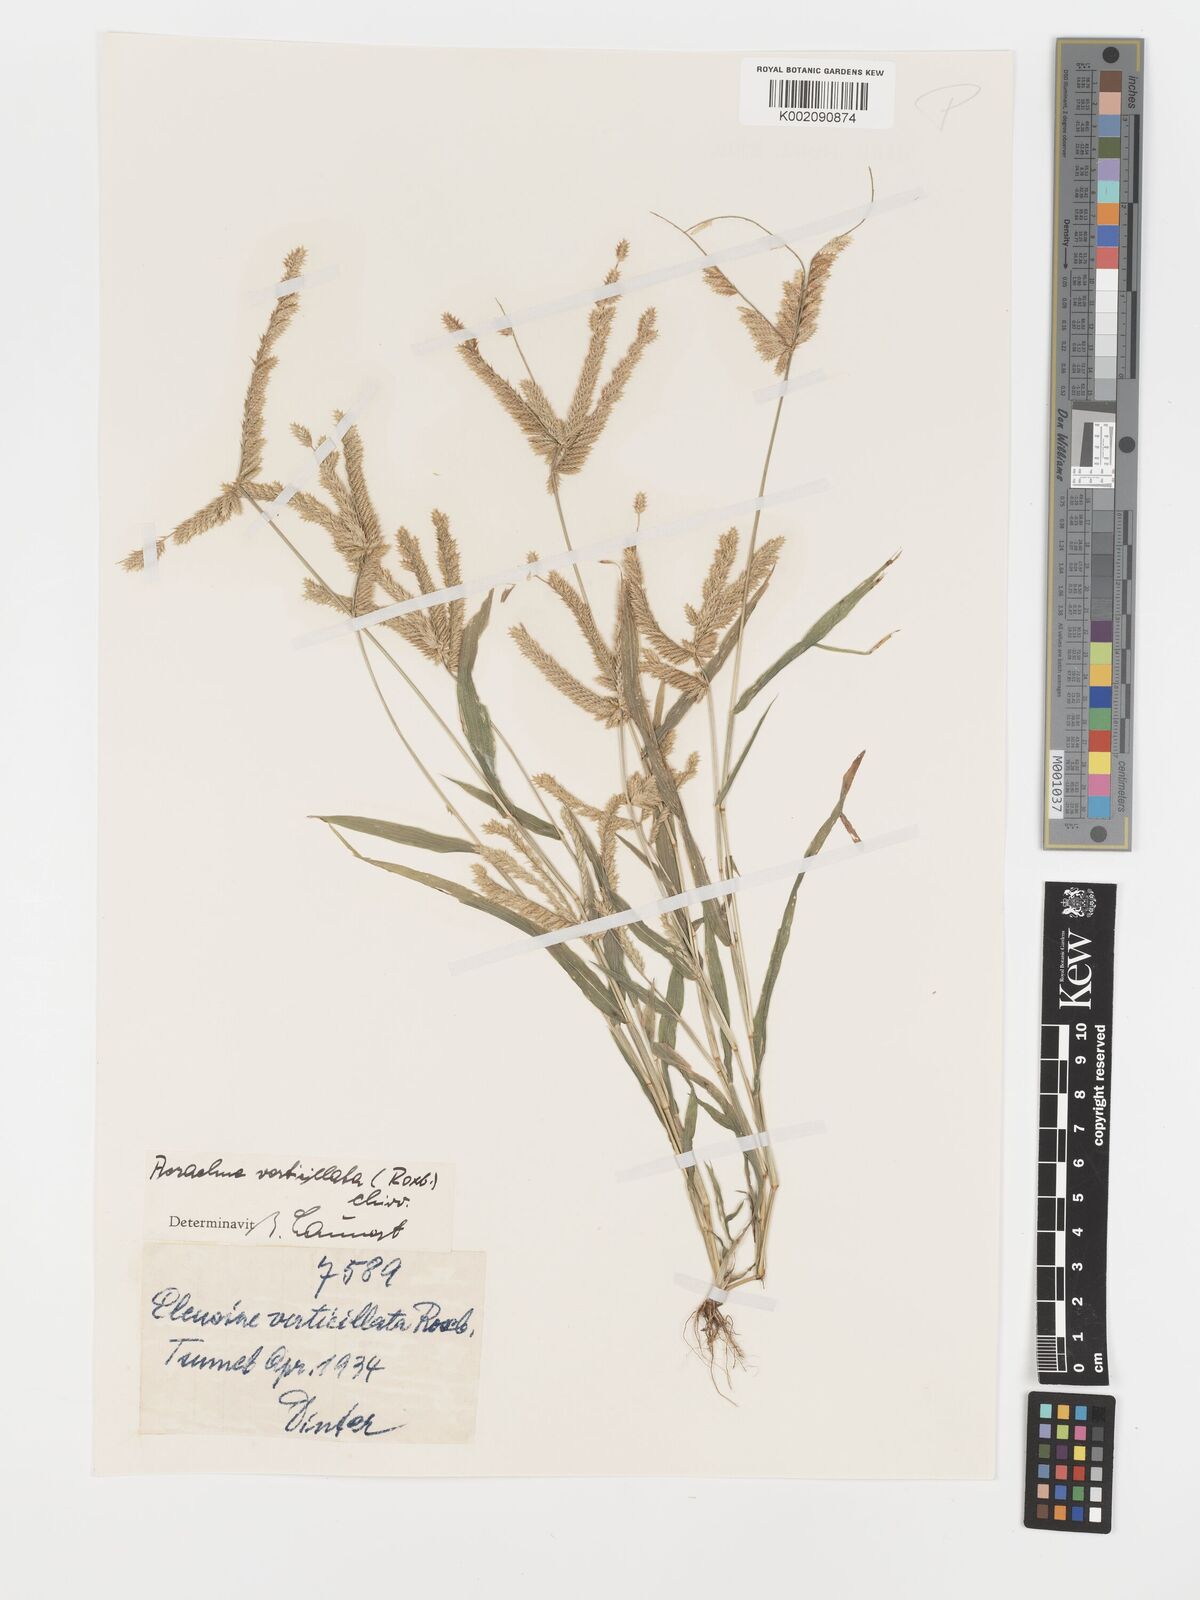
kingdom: Plantae
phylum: Tracheophyta
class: Liliopsida
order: Poales
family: Poaceae
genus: Acrachne
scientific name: Acrachne racemosa
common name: Goosegrass
